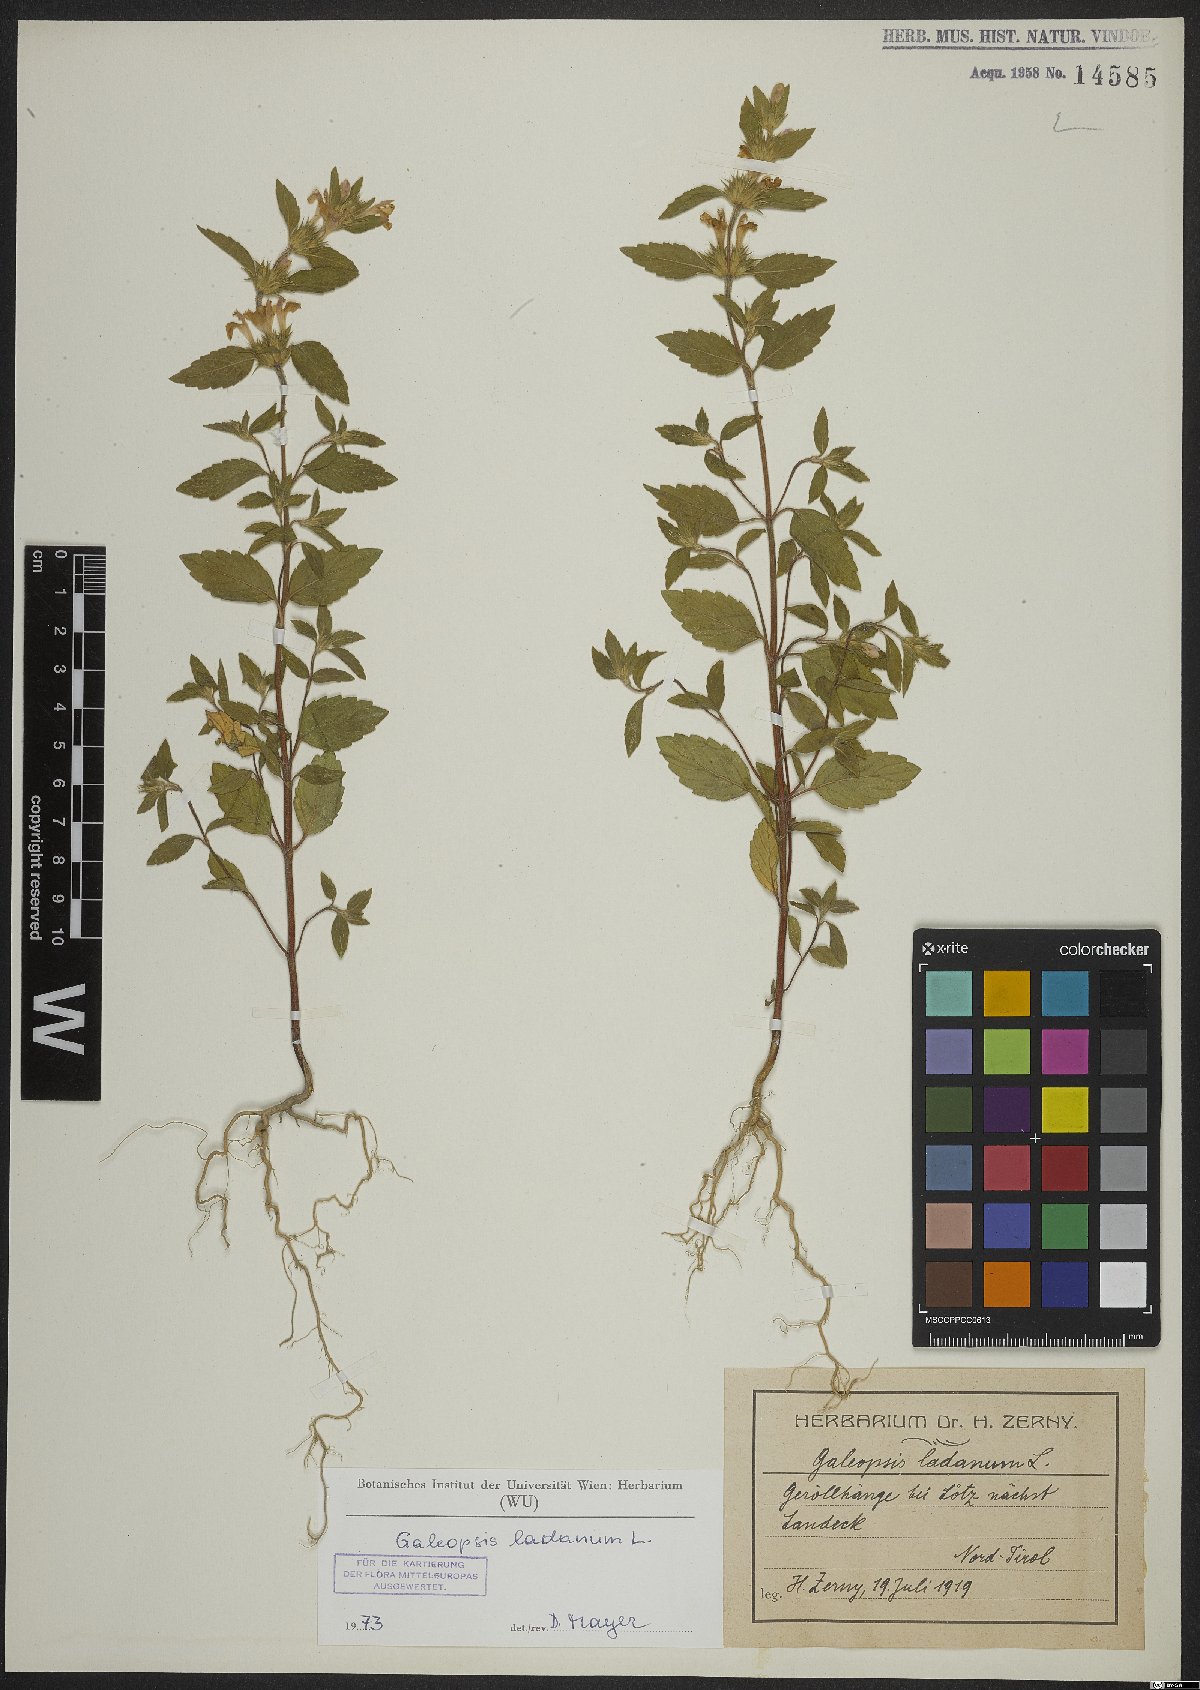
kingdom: Plantae
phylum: Tracheophyta
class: Magnoliopsida
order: Lamiales
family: Lamiaceae
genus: Galeopsis
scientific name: Galeopsis ladanum
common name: Broad-leaved hemp-nettle
